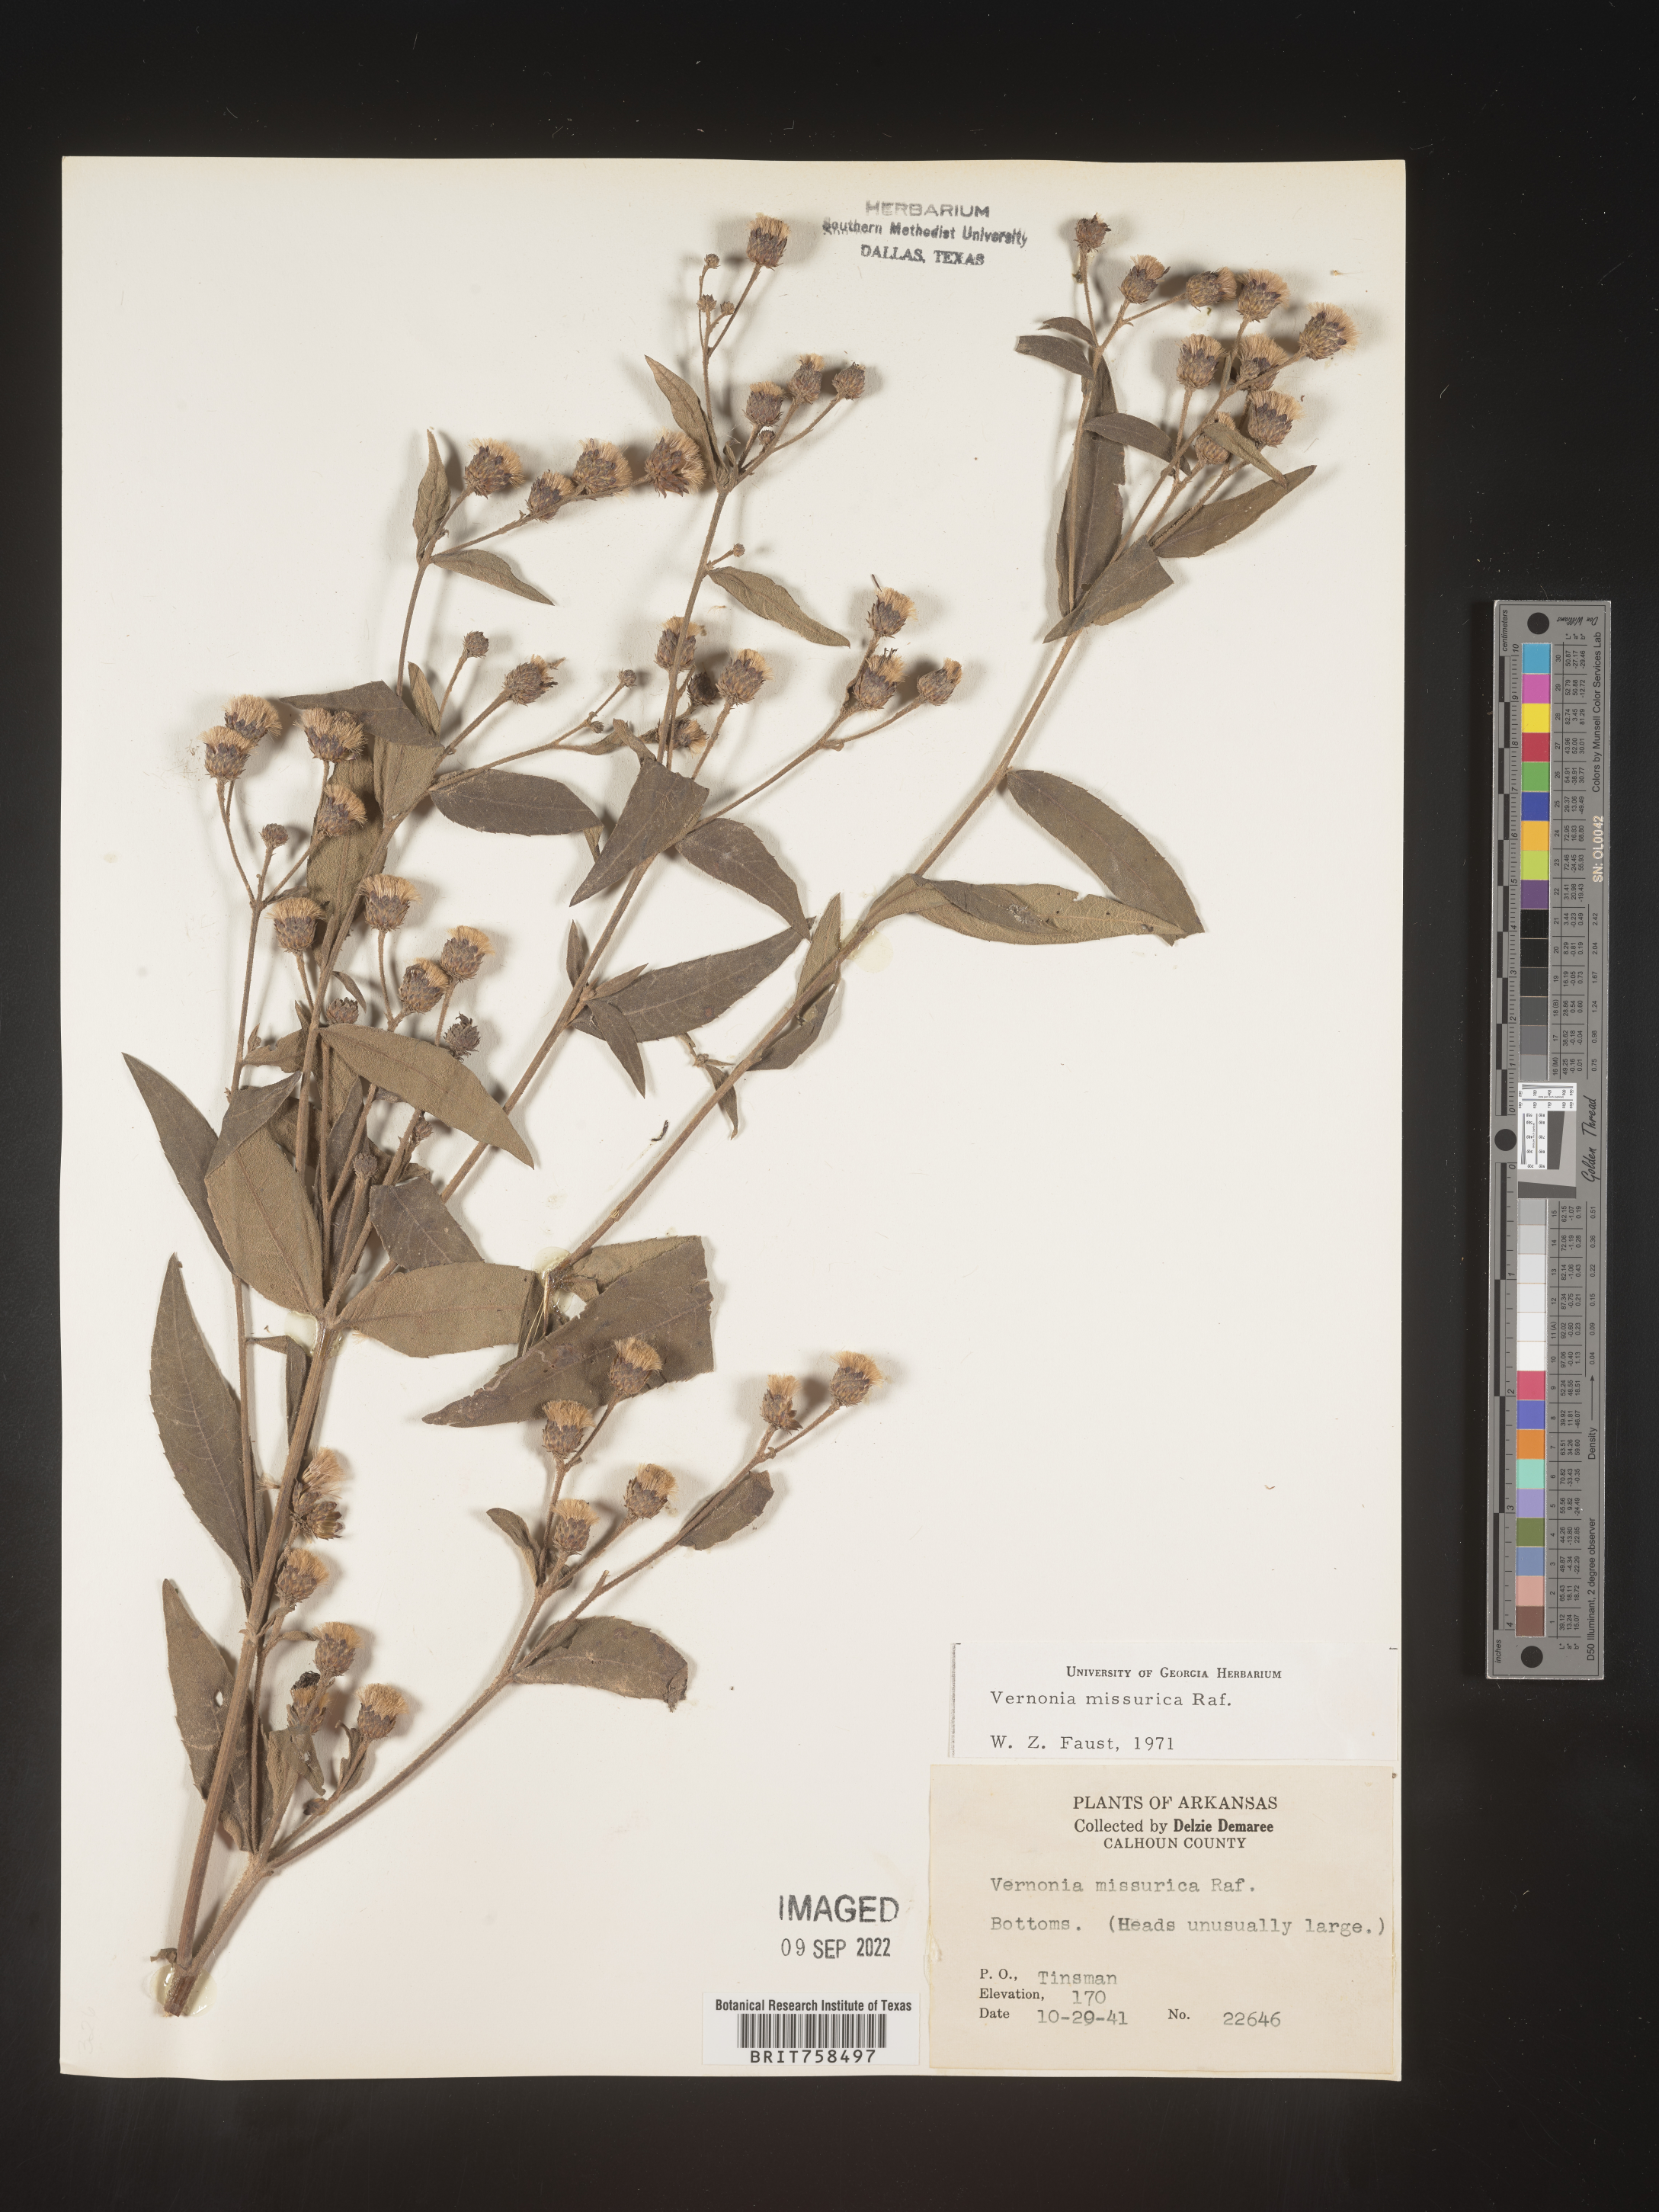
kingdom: Plantae
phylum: Tracheophyta
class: Magnoliopsida
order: Asterales
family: Asteraceae
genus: Vernonia
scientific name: Vernonia missurica
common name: Missouri ironweed
